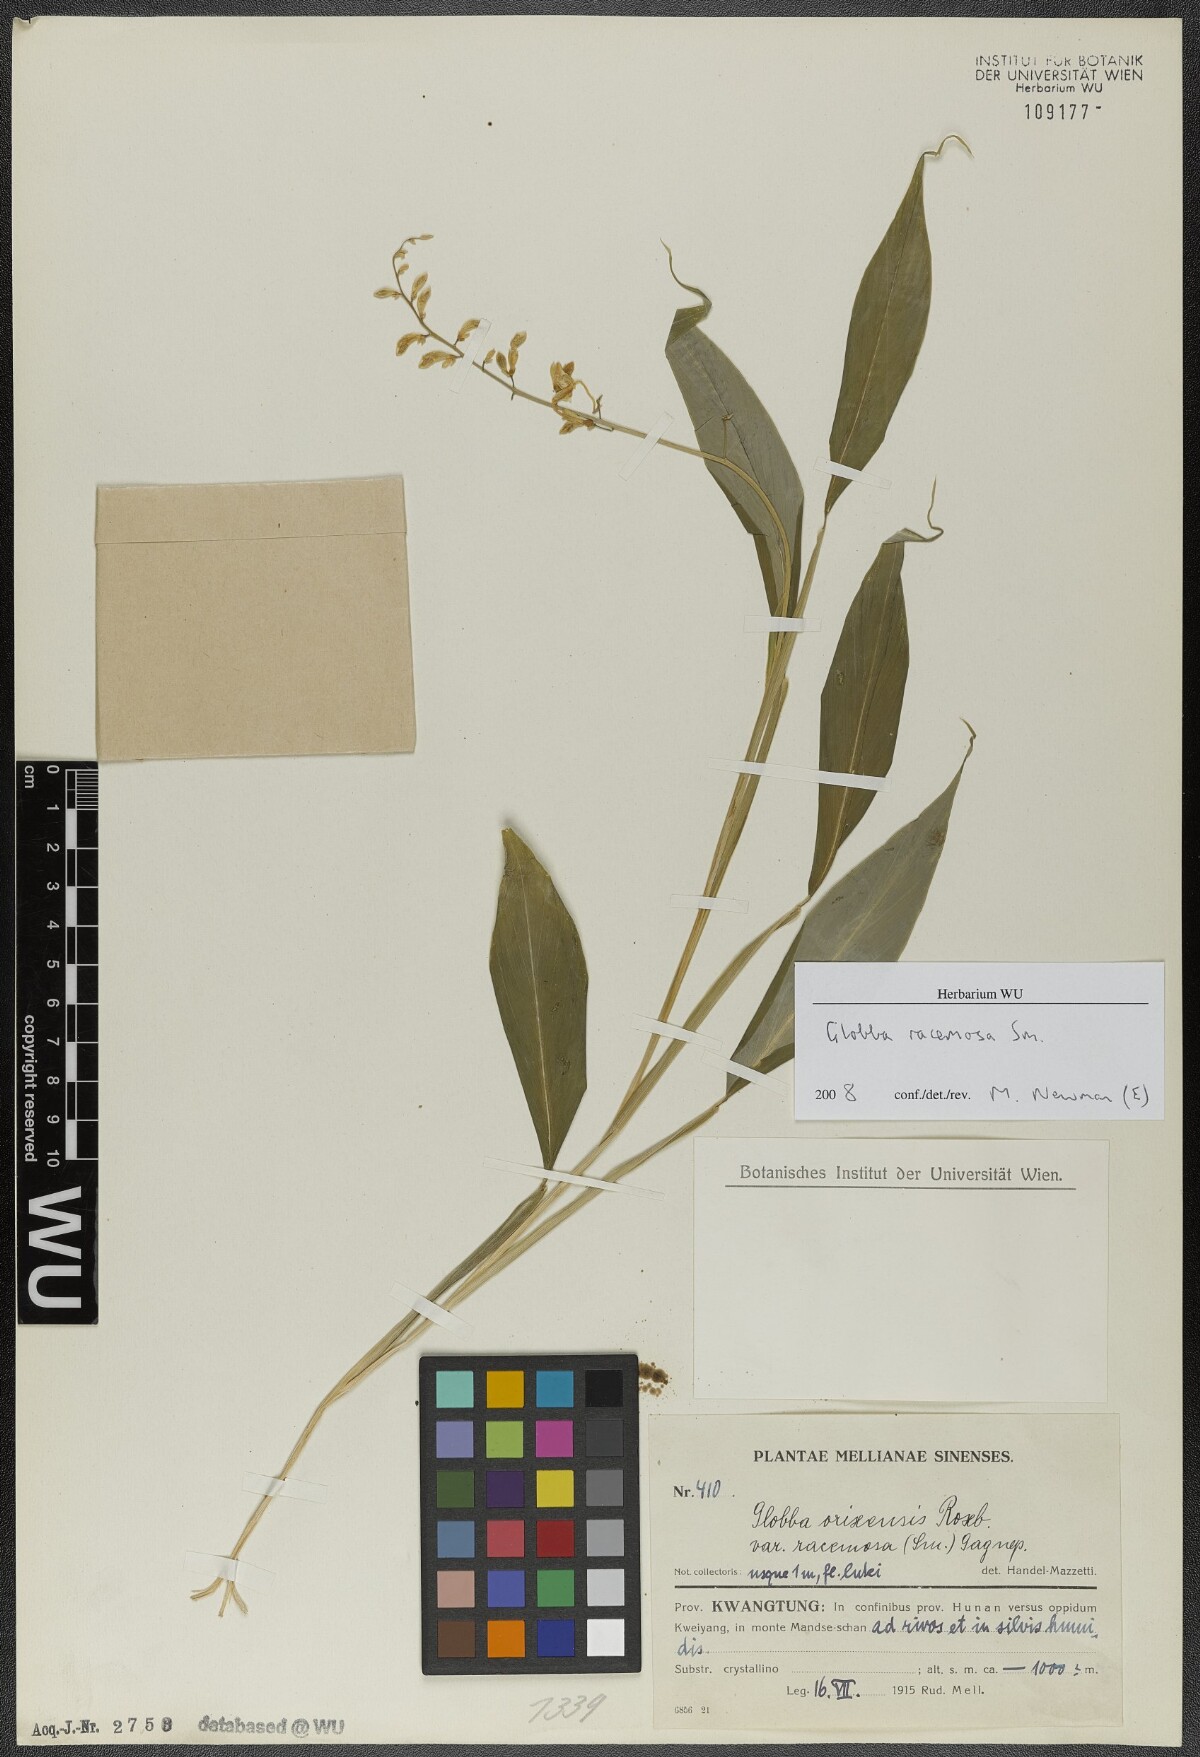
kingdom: Plantae
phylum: Tracheophyta
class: Liliopsida
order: Zingiberales
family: Zingiberaceae
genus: Globba
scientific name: Globba racemosa
